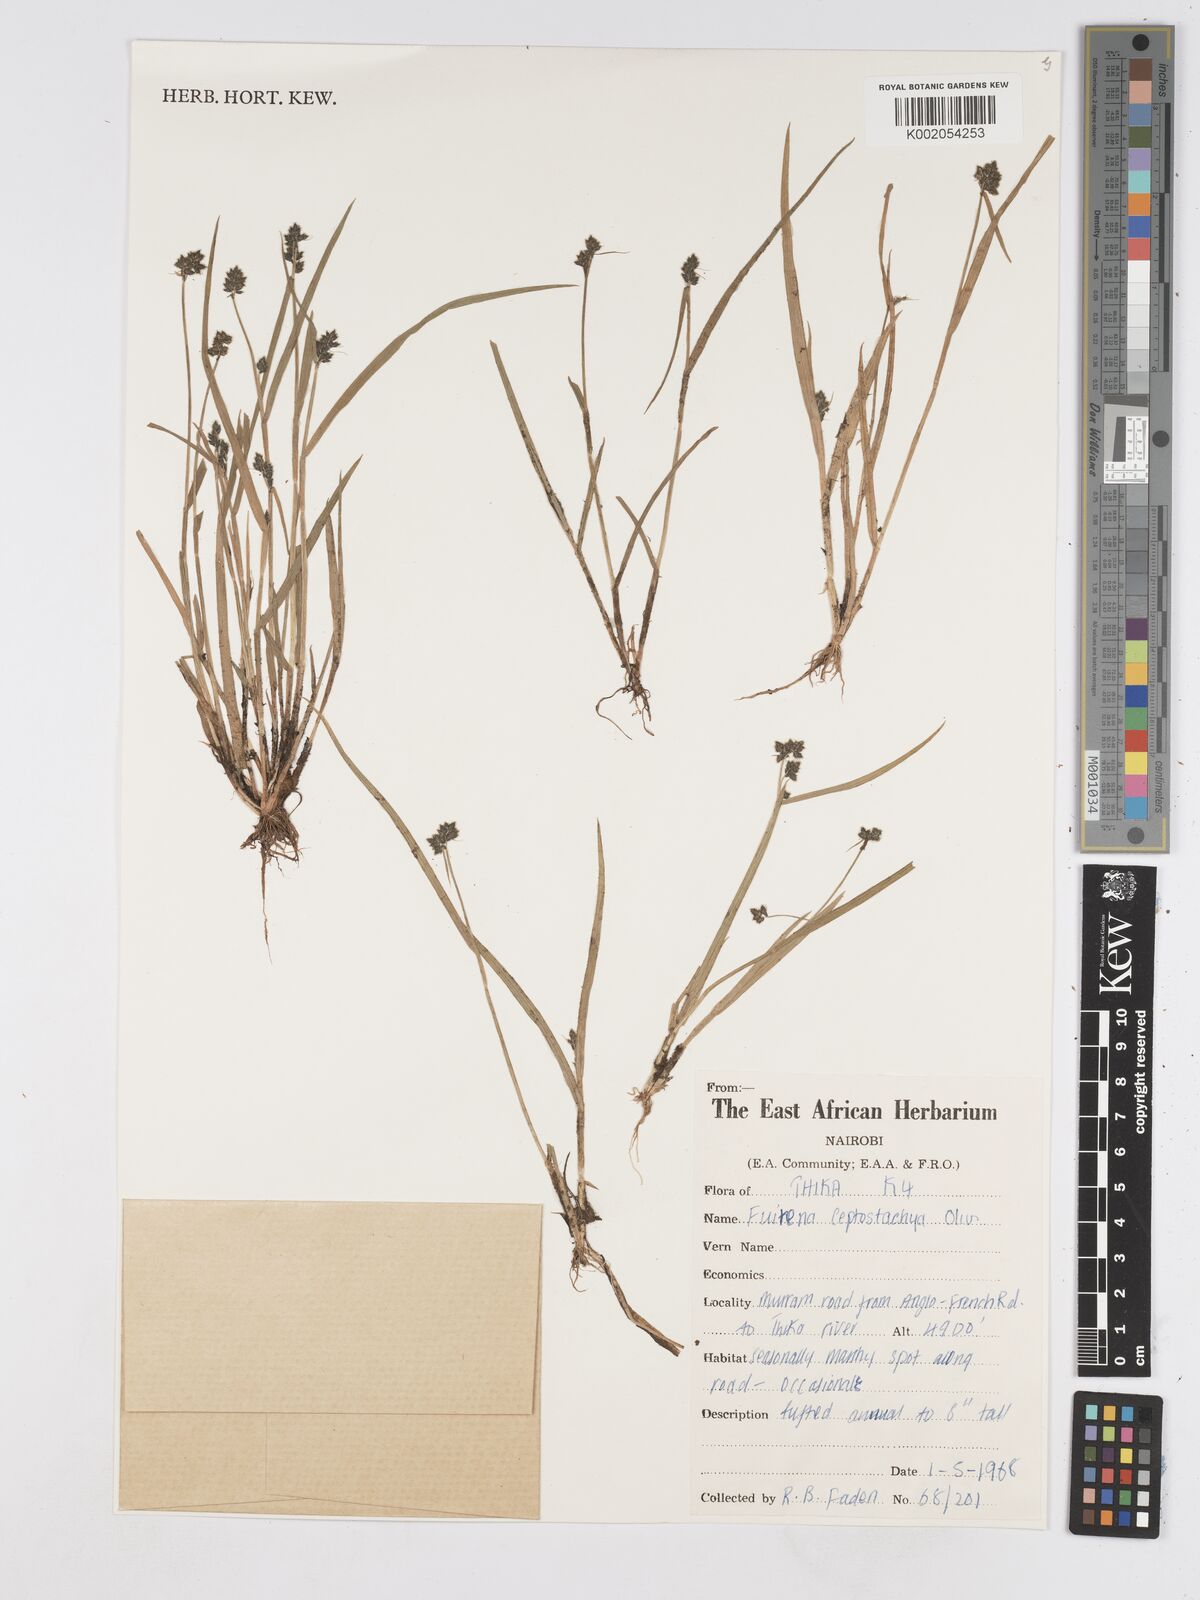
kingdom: Plantae
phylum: Tracheophyta
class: Liliopsida
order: Poales
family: Cyperaceae
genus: Fuirena
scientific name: Fuirena leptostachya
